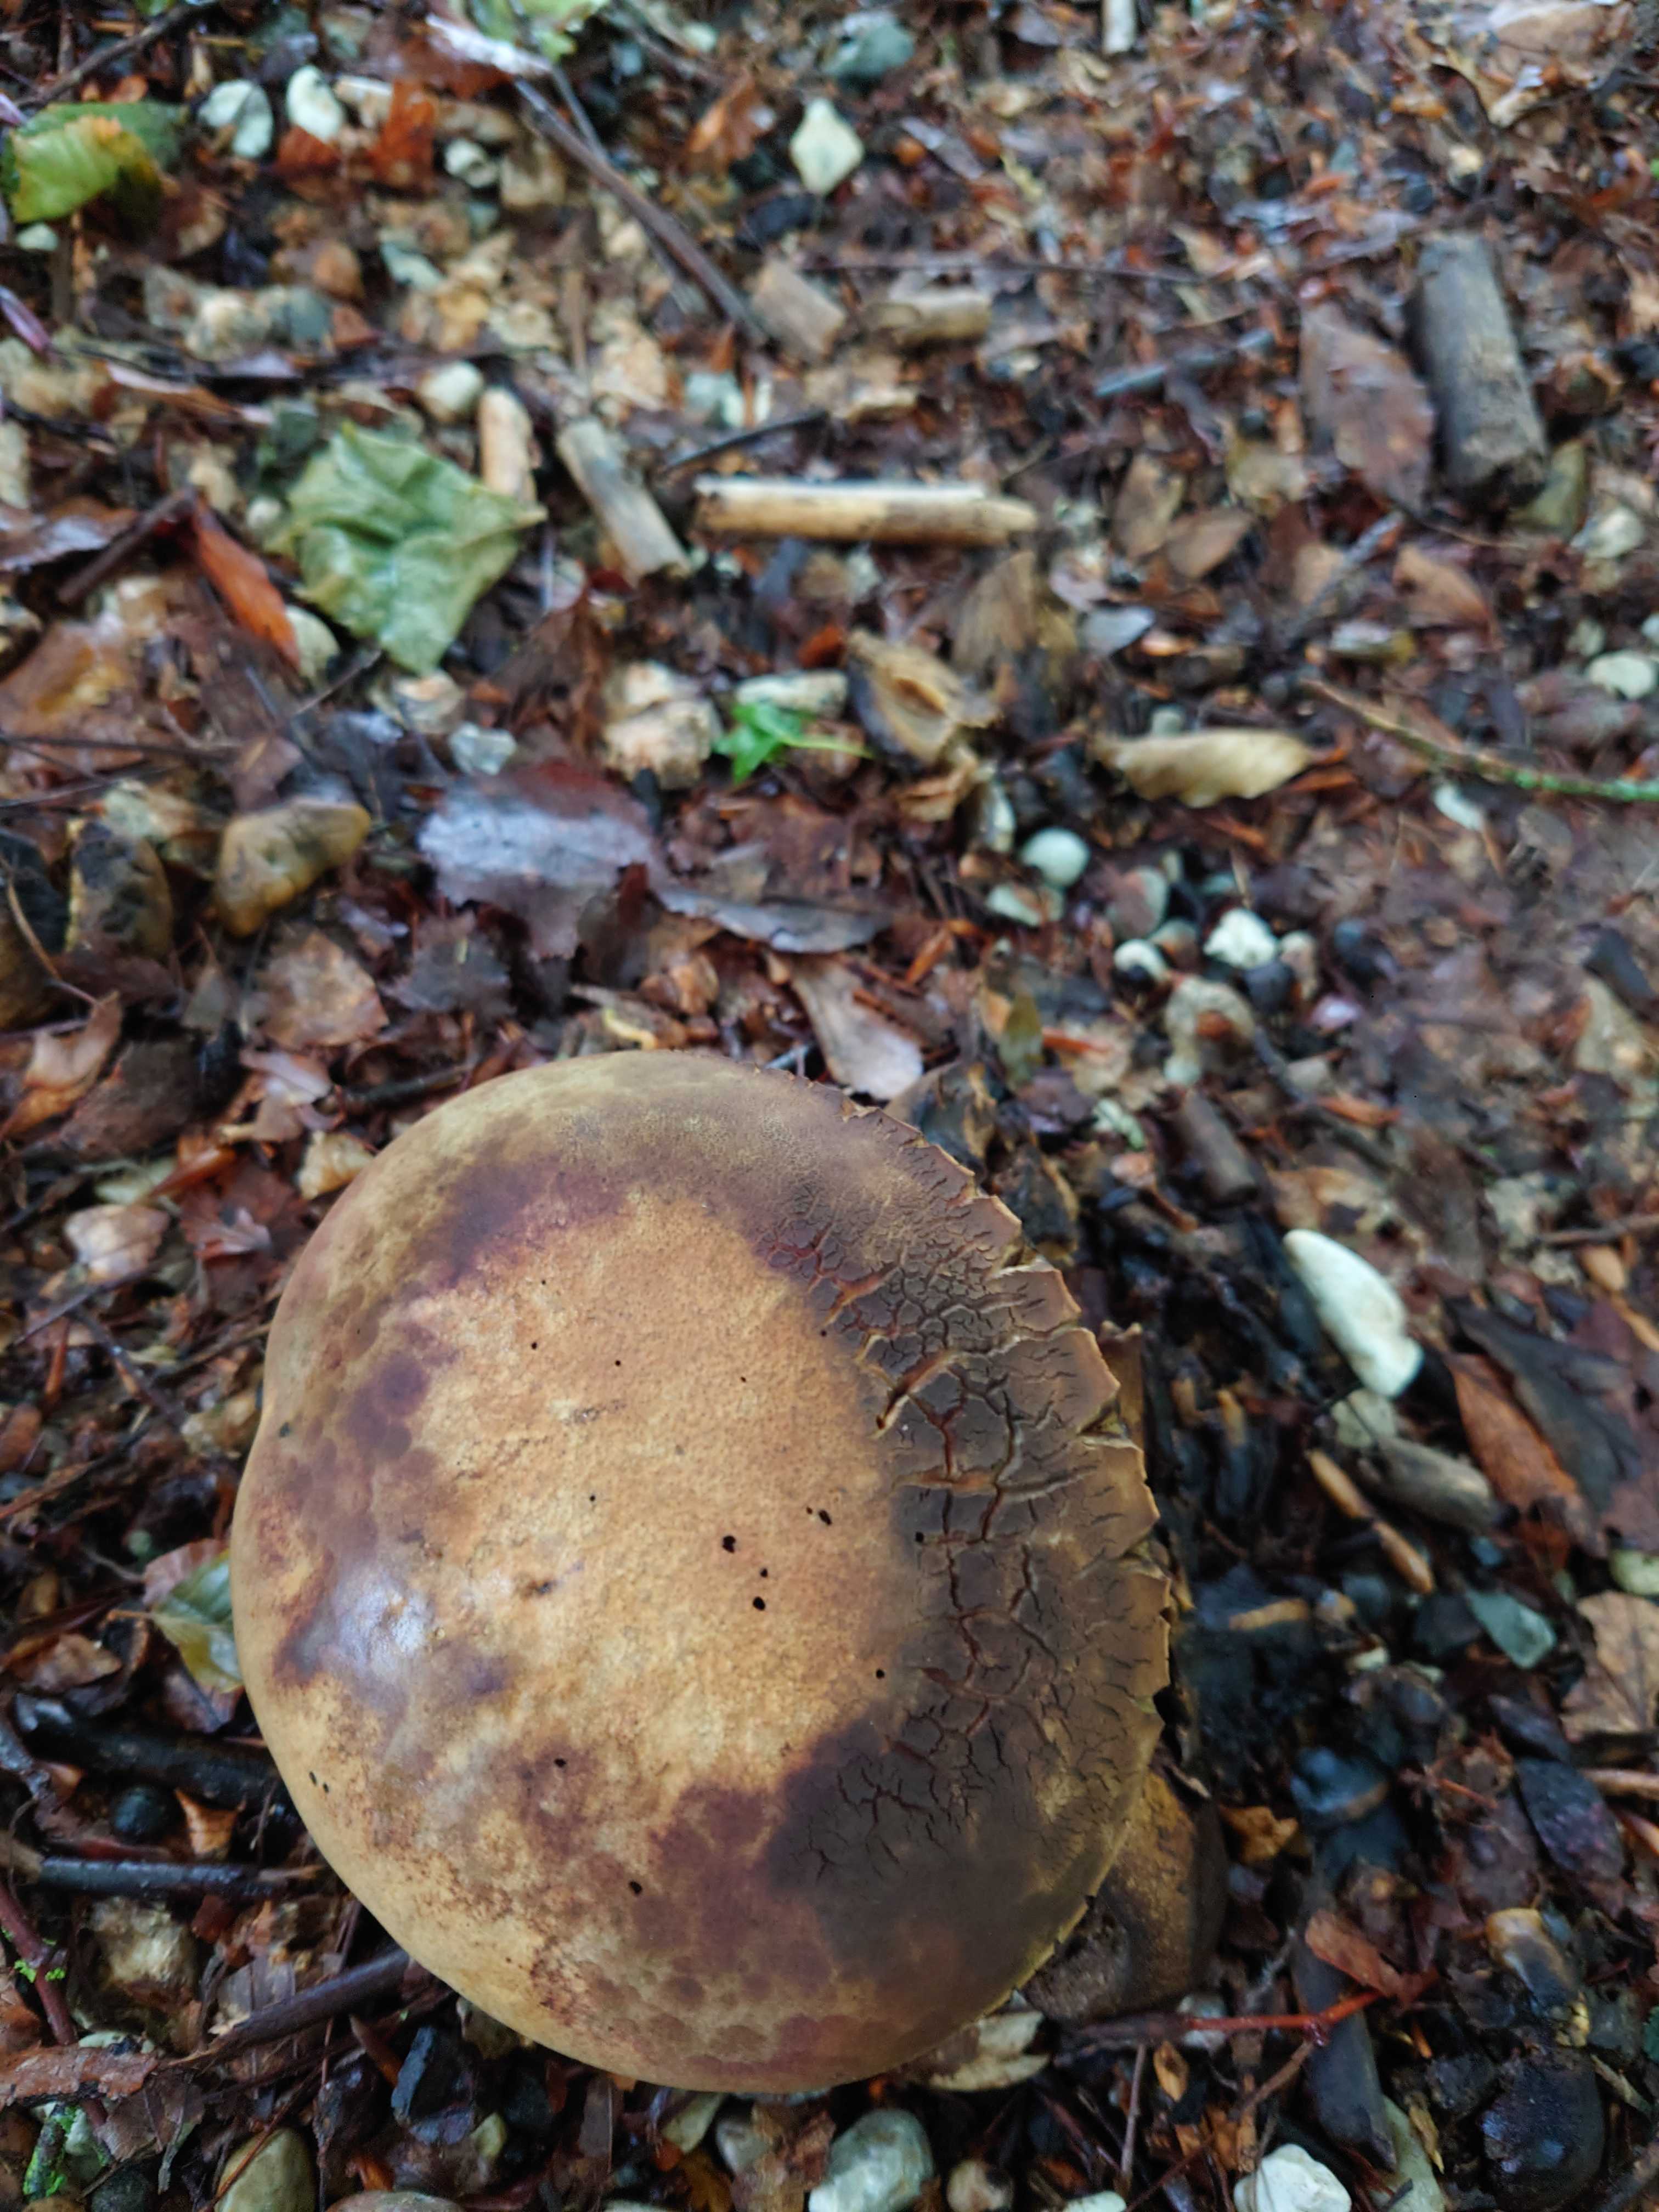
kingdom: Fungi
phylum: Basidiomycota
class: Agaricomycetes
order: Boletales
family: Boletaceae
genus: Suillellus
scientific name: Suillellus luridus
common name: netstokket indigorørhat
